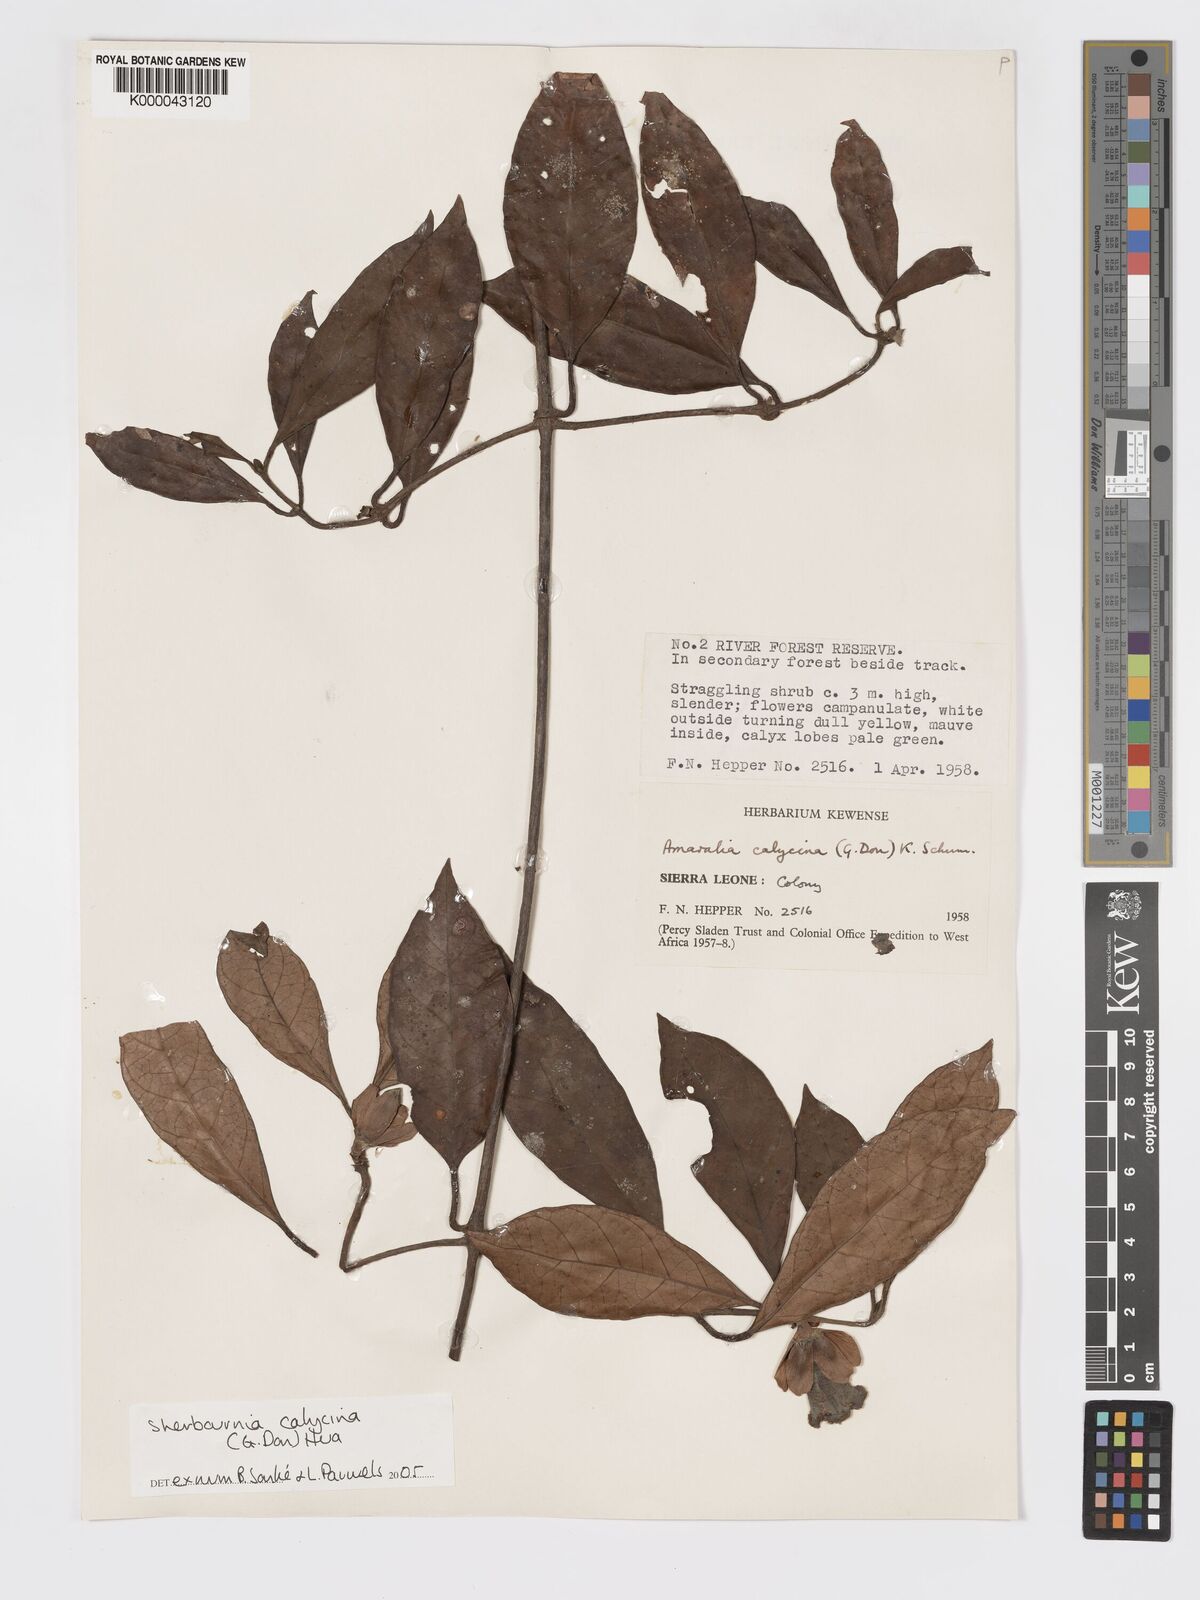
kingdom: Plantae
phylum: Tracheophyta
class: Magnoliopsida
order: Gentianales
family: Rubiaceae
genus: Sherbournia
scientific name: Sherbournia calycina
